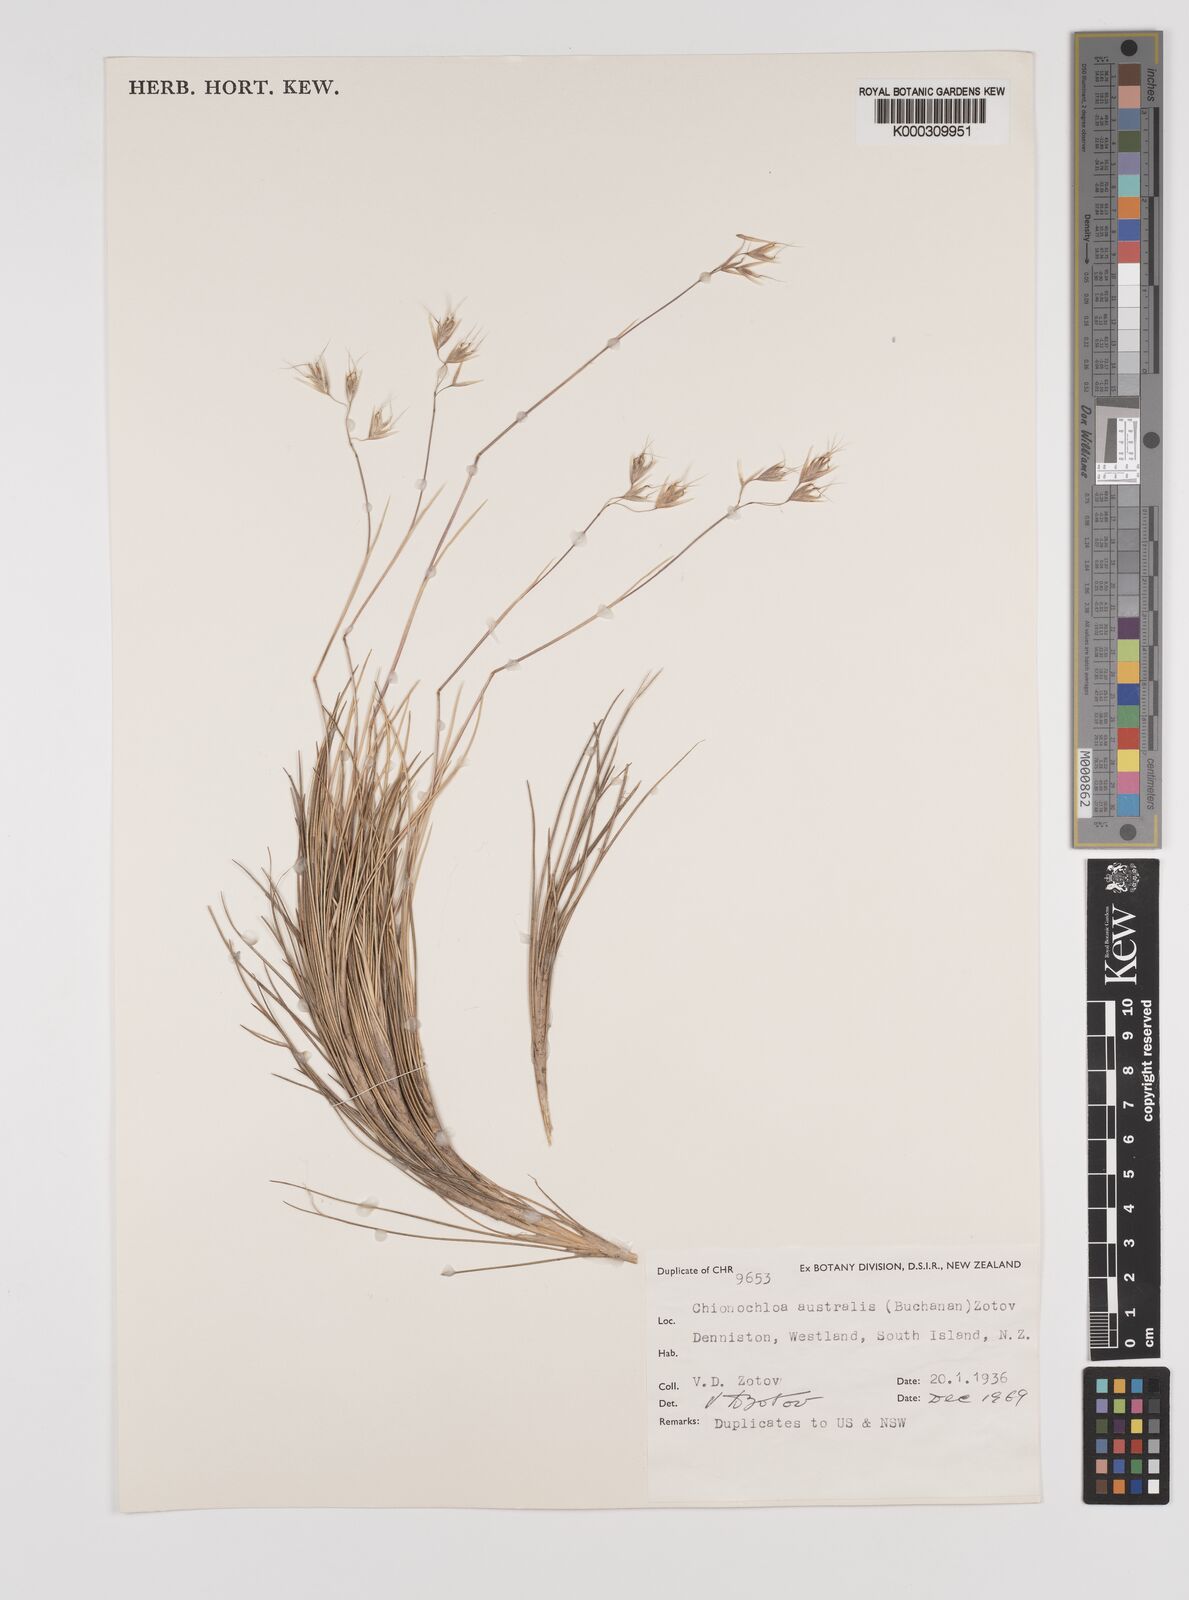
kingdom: Plantae
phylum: Tracheophyta
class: Liliopsida
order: Poales
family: Poaceae
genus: Chionochloa
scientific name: Chionochloa australis
